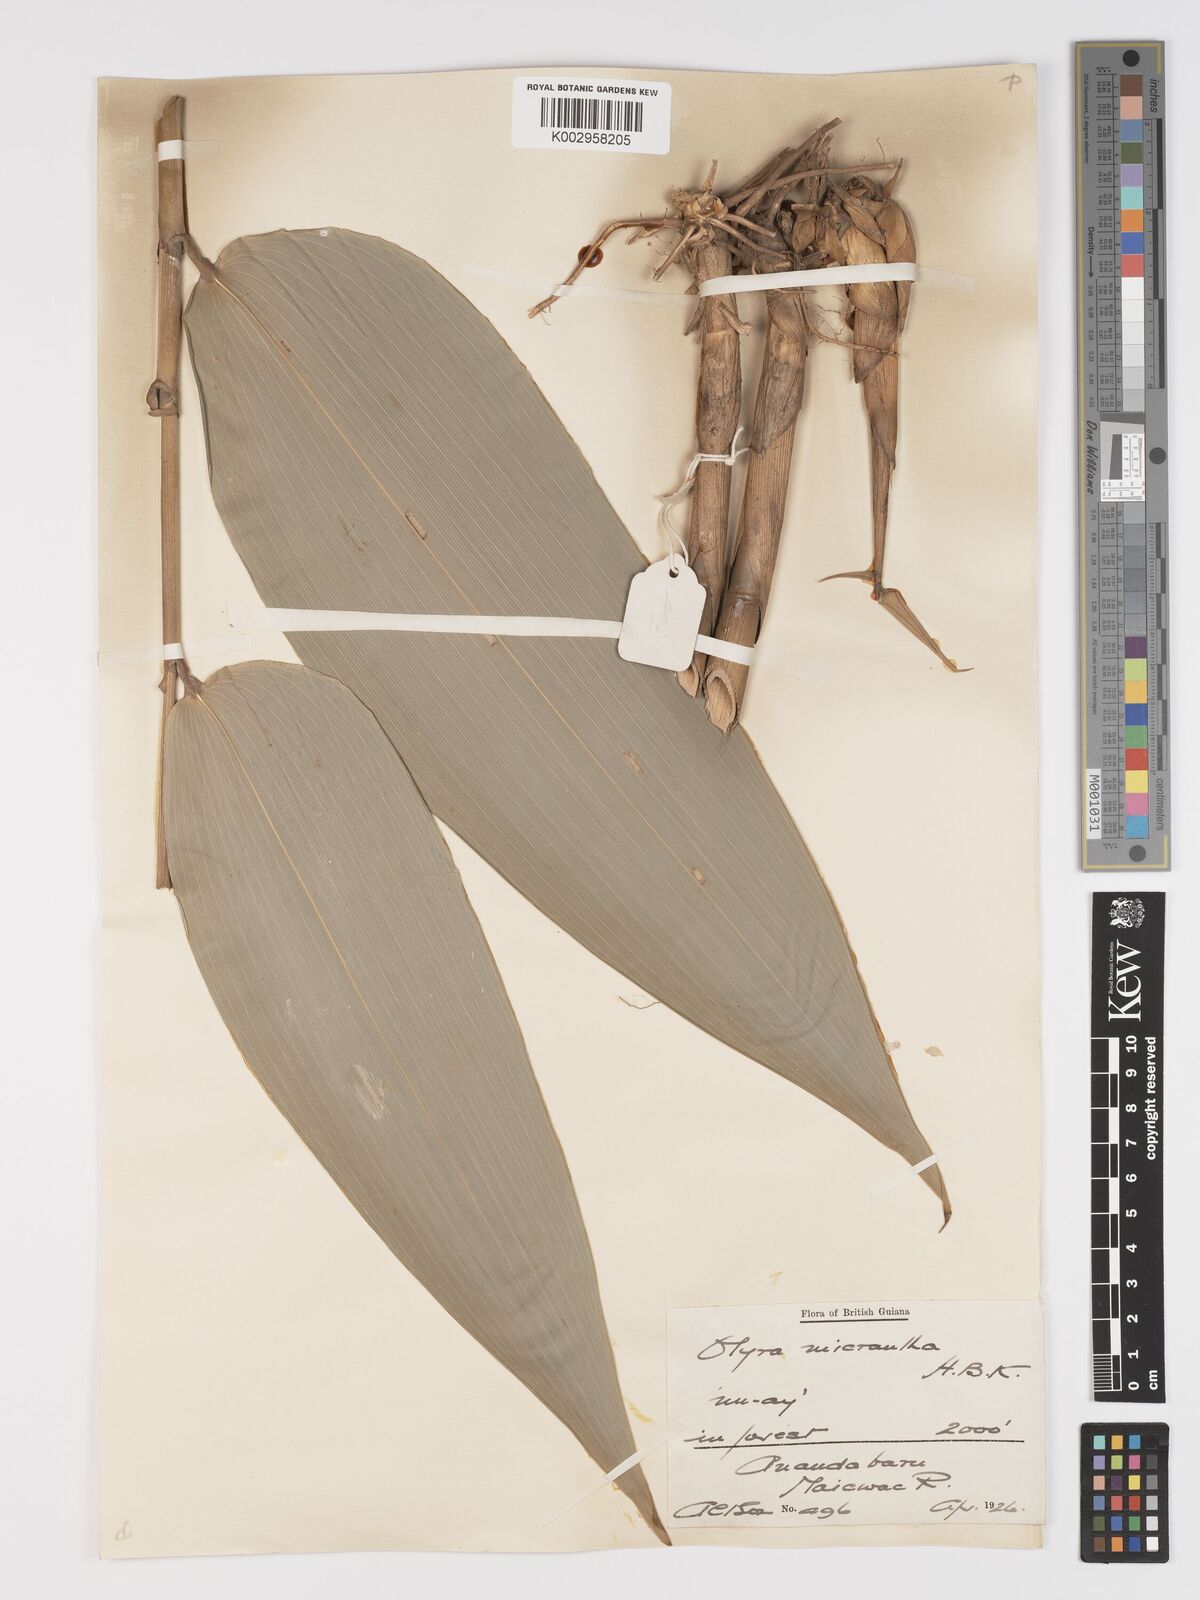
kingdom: Plantae
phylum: Tracheophyta
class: Liliopsida
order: Poales
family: Poaceae
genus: Taquara
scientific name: Taquara micrantha
